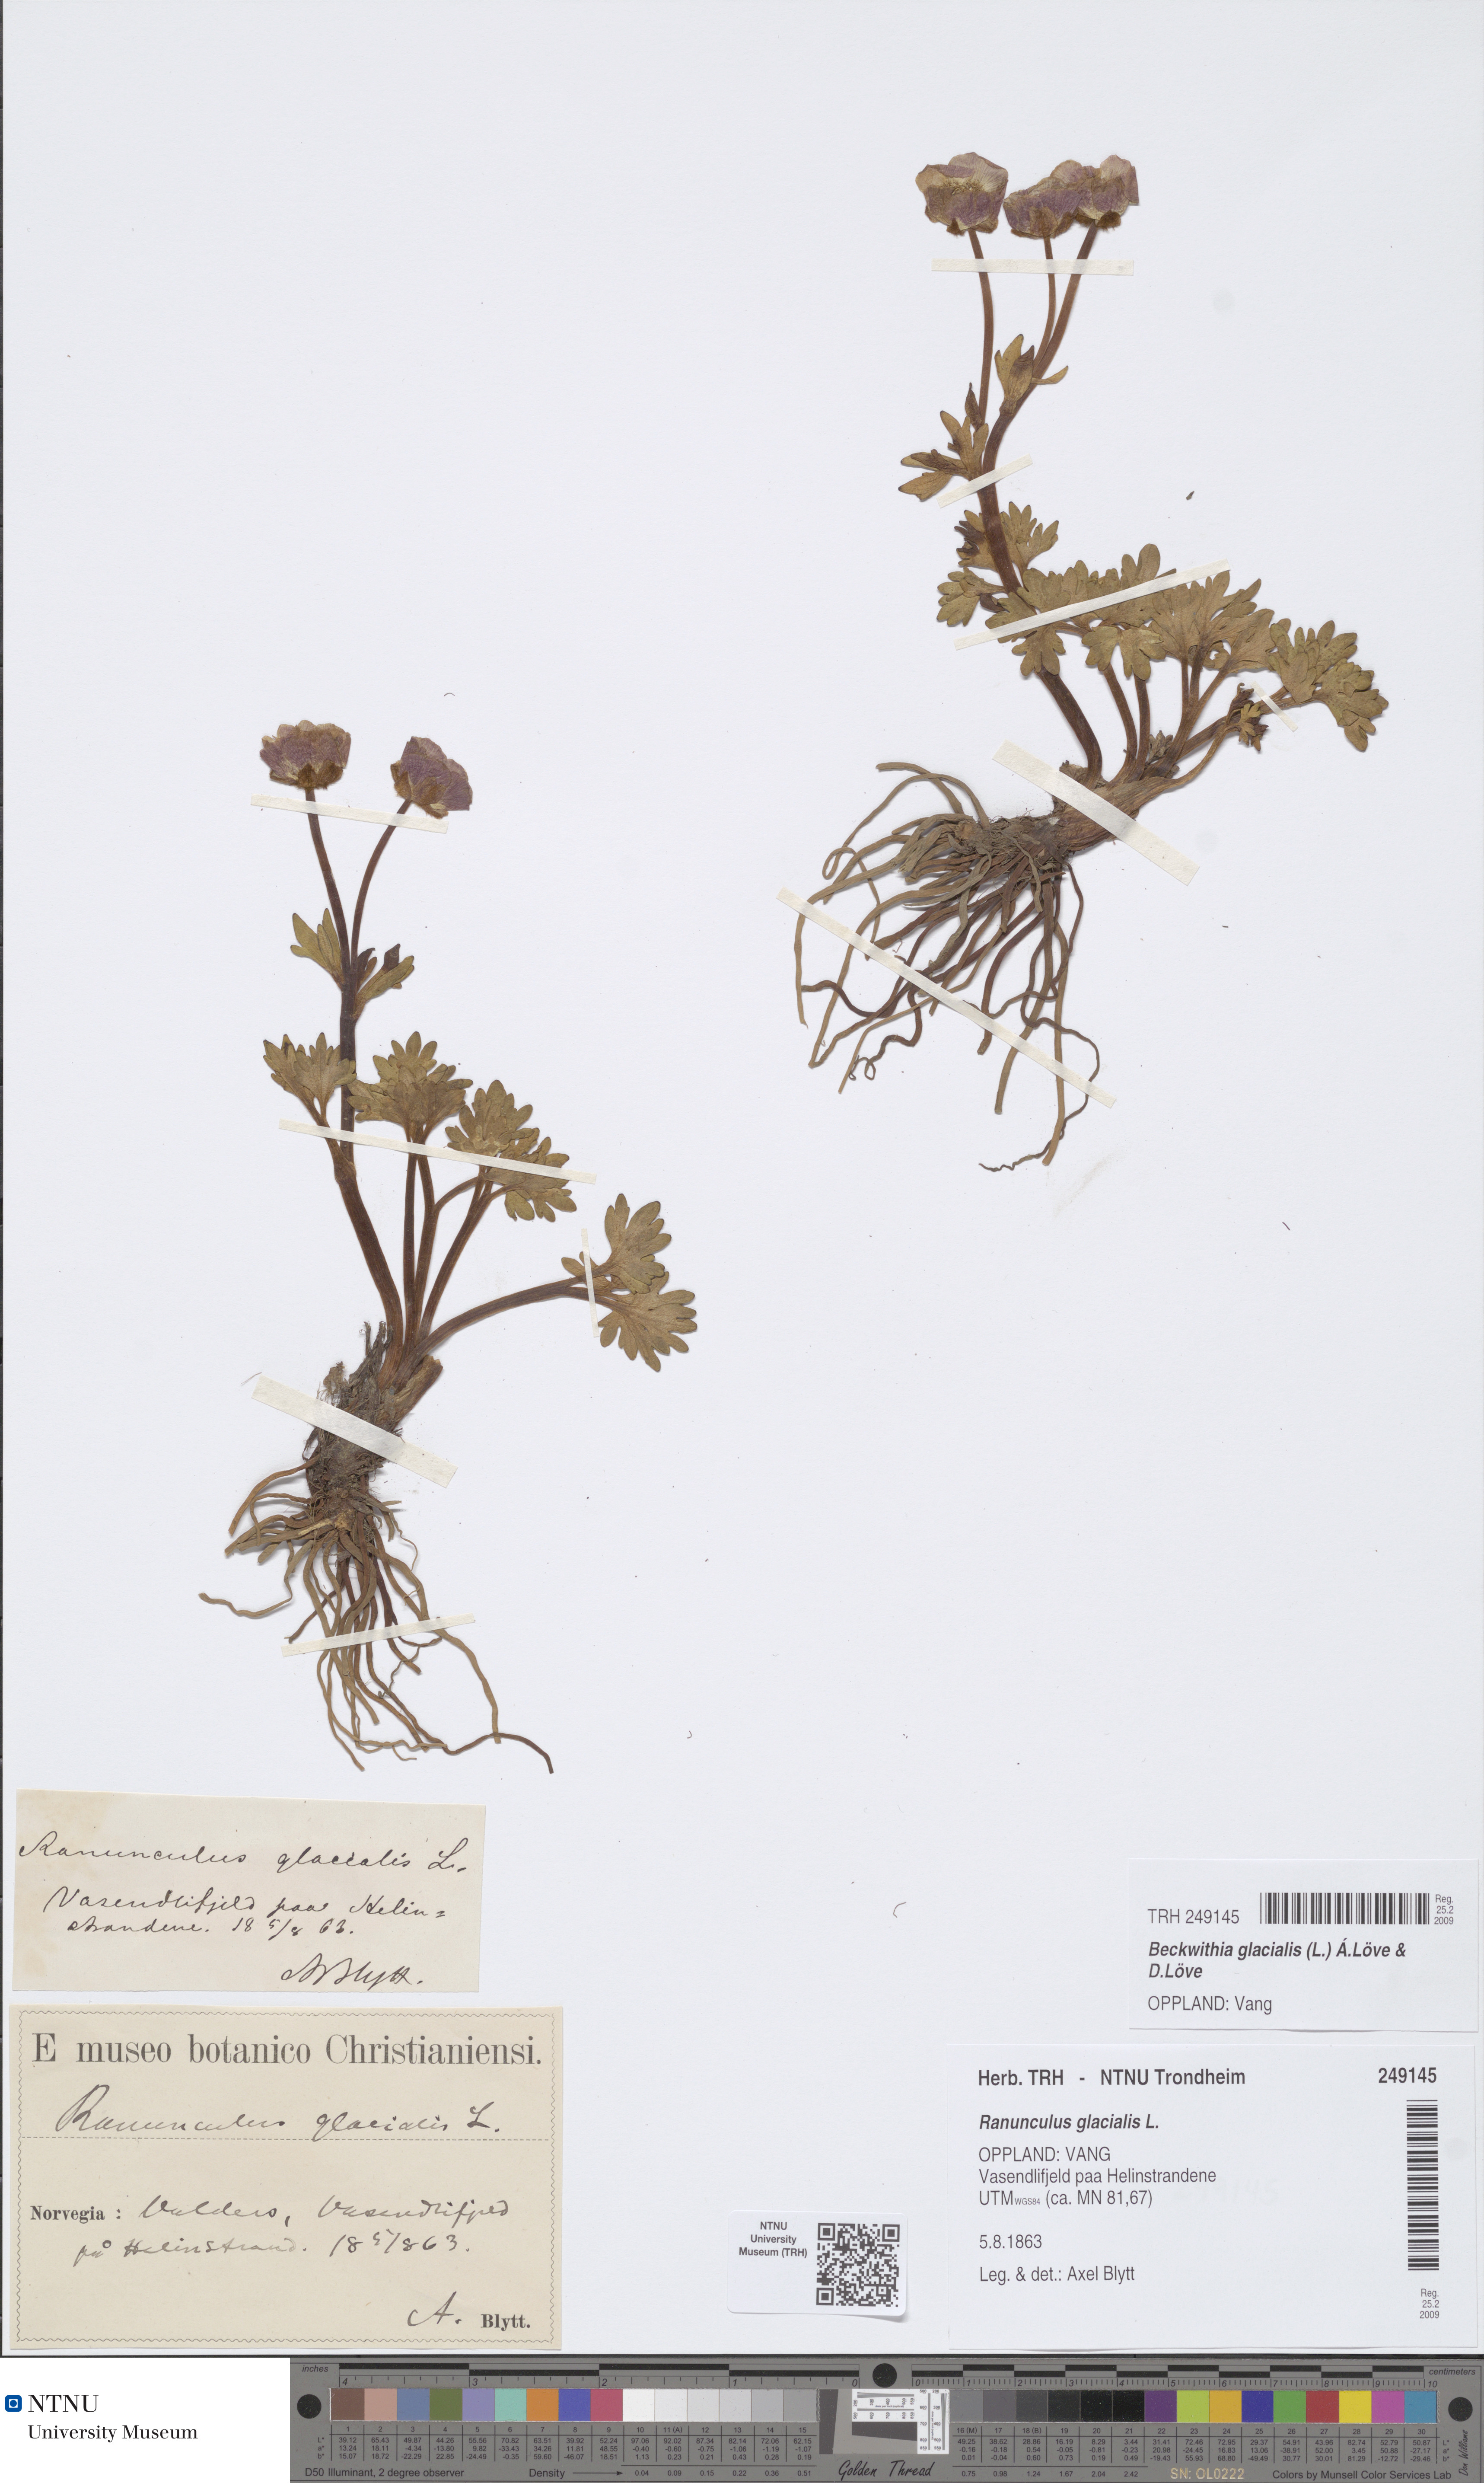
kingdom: Plantae
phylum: Tracheophyta
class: Magnoliopsida
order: Ranunculales
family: Ranunculaceae
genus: Ranunculus
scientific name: Ranunculus glacialis
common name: Glacier buttercup
